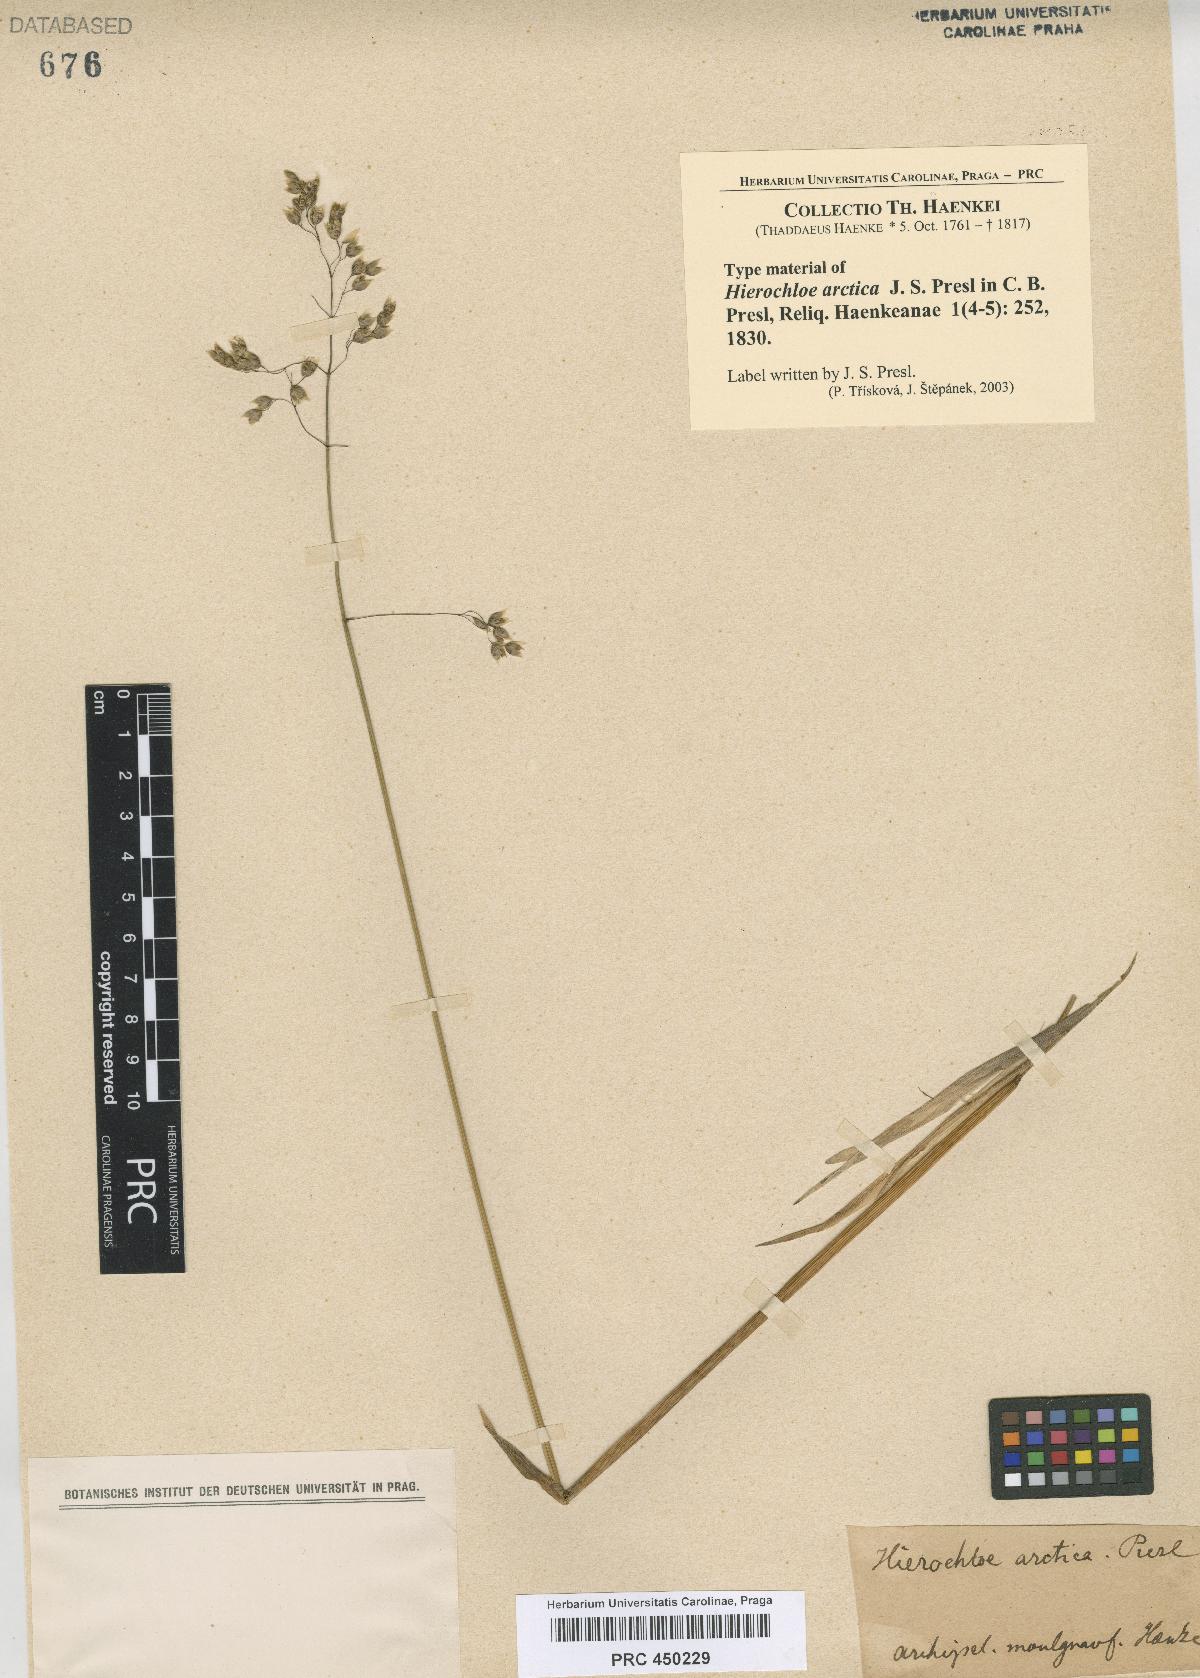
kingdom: Plantae
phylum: Tracheophyta
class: Liliopsida
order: Poales
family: Poaceae
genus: Anthoxanthum
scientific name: Anthoxanthum nitens
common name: Holy grass
